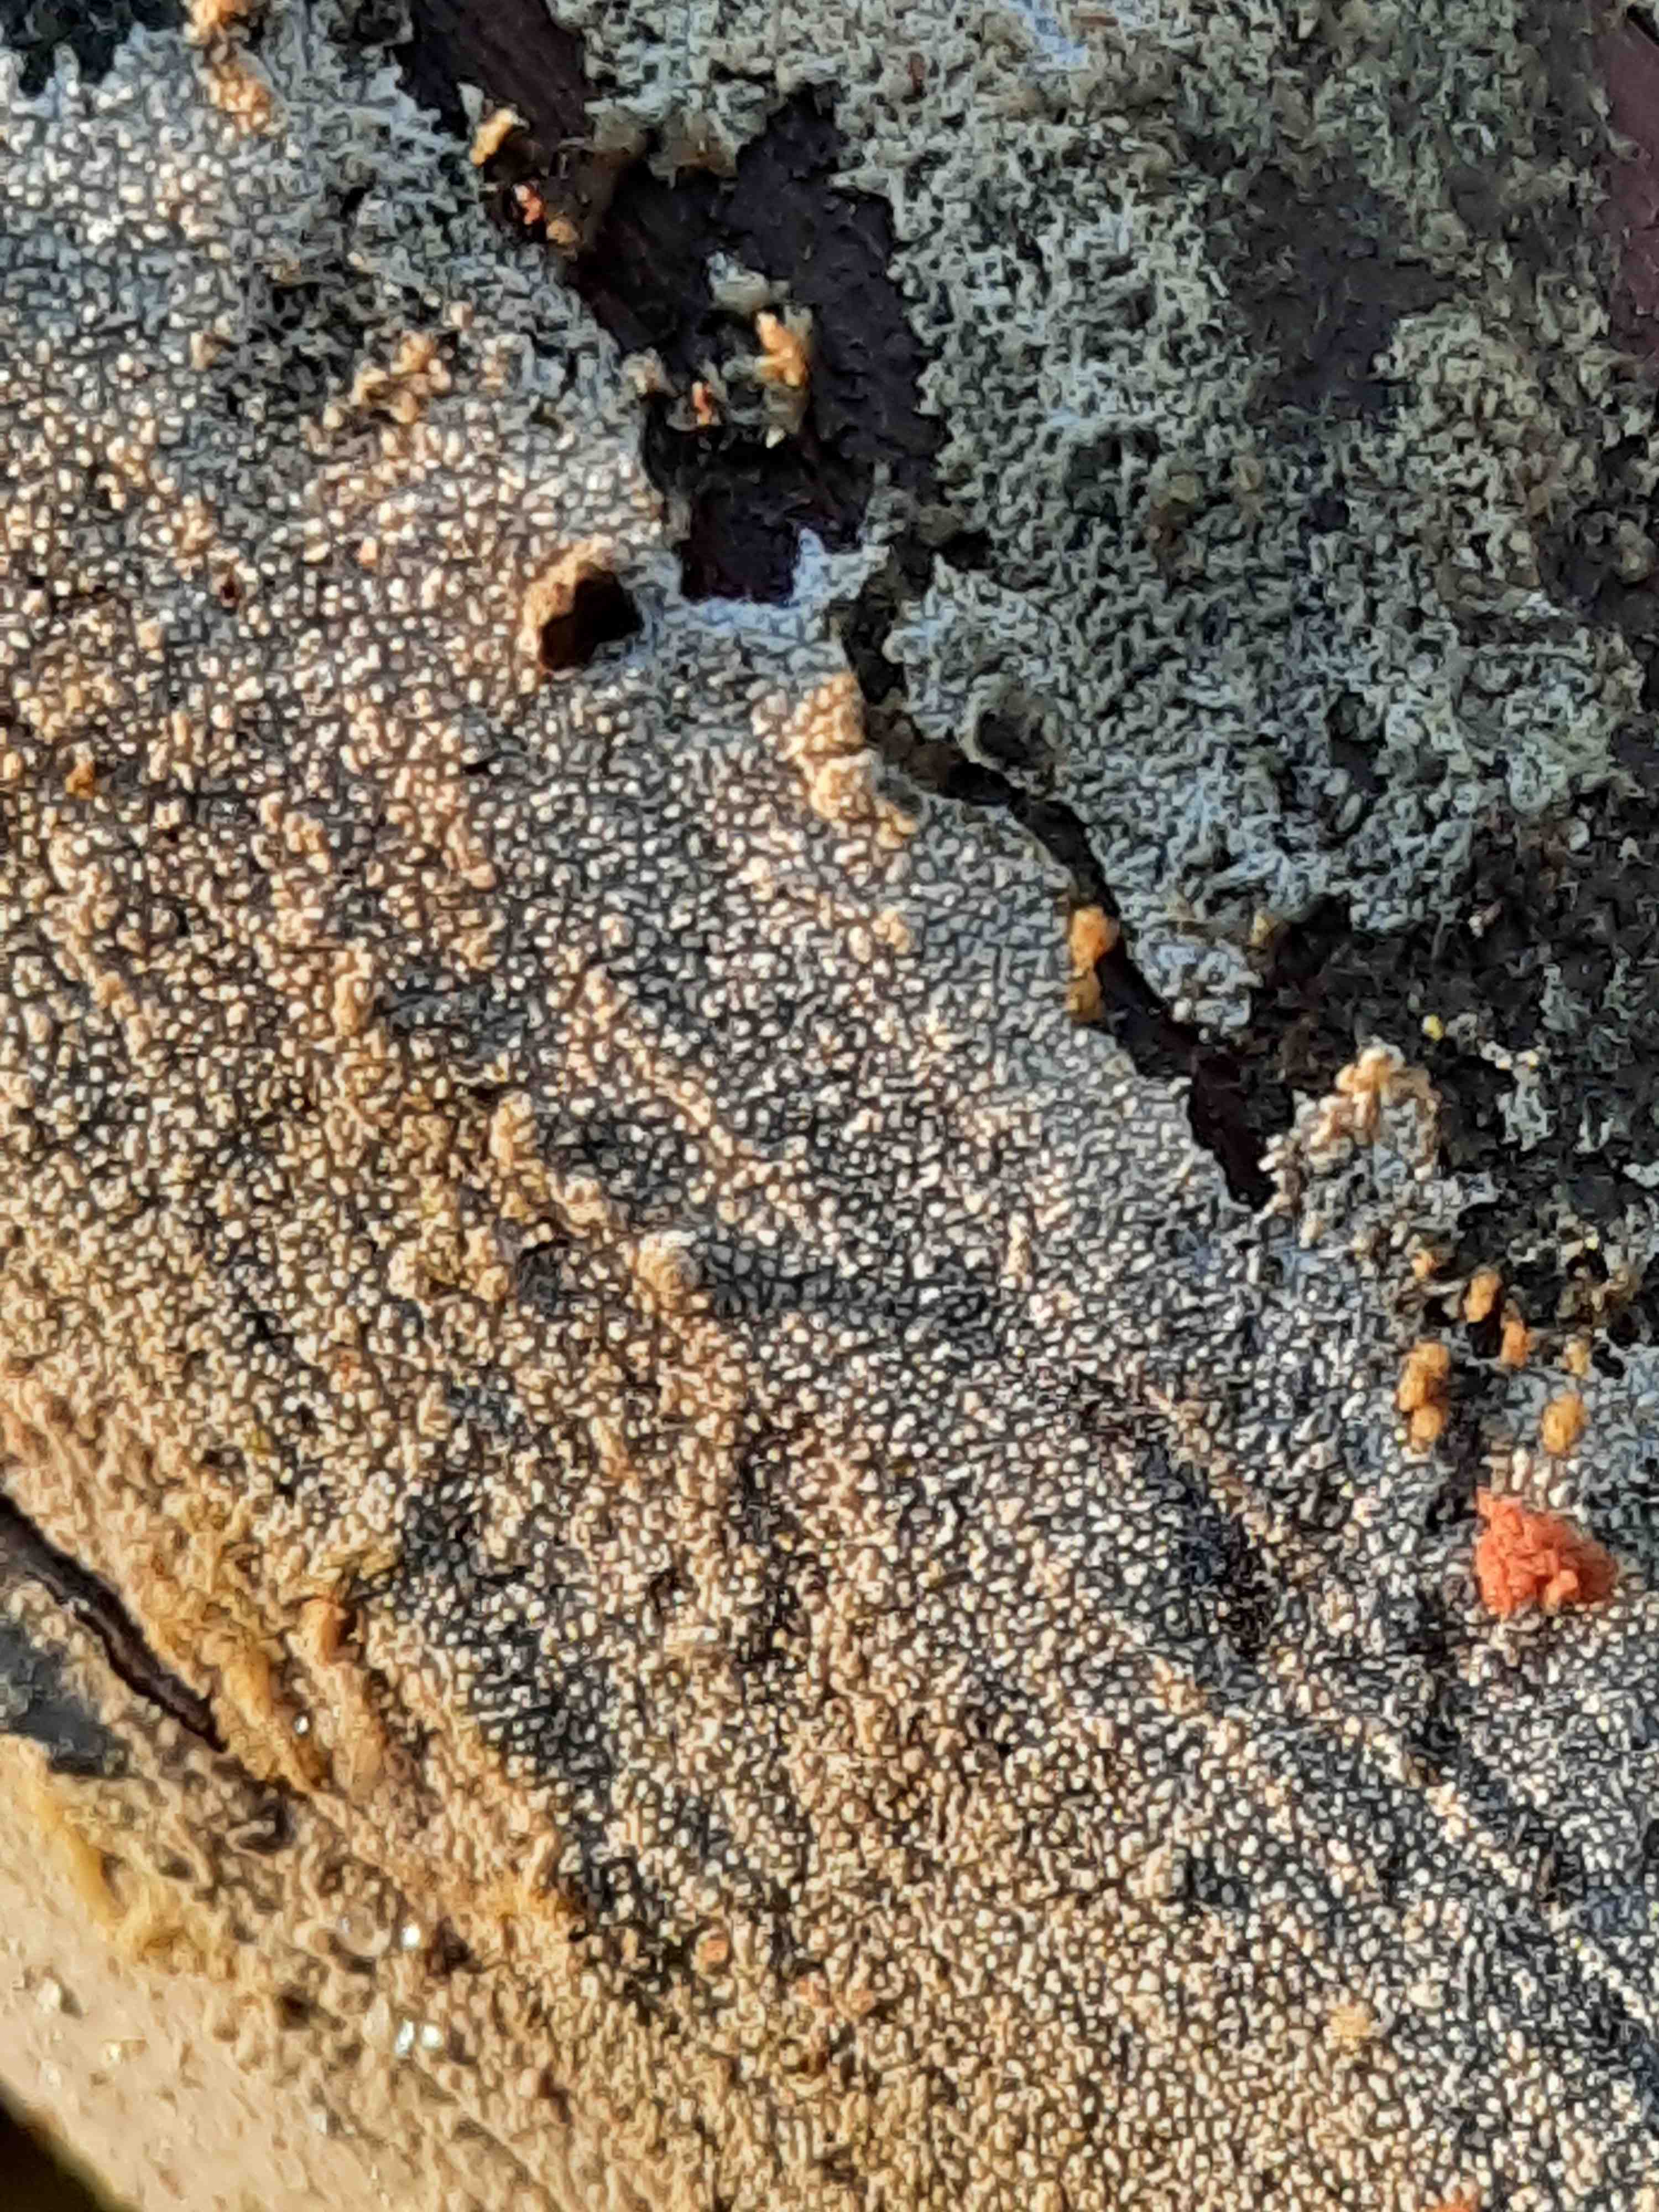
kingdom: Fungi
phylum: Basidiomycota
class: Agaricomycetes
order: Hymenochaetales
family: Rickenellaceae
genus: Resinicium
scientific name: Resinicium bicolor
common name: almindelig vokstand
